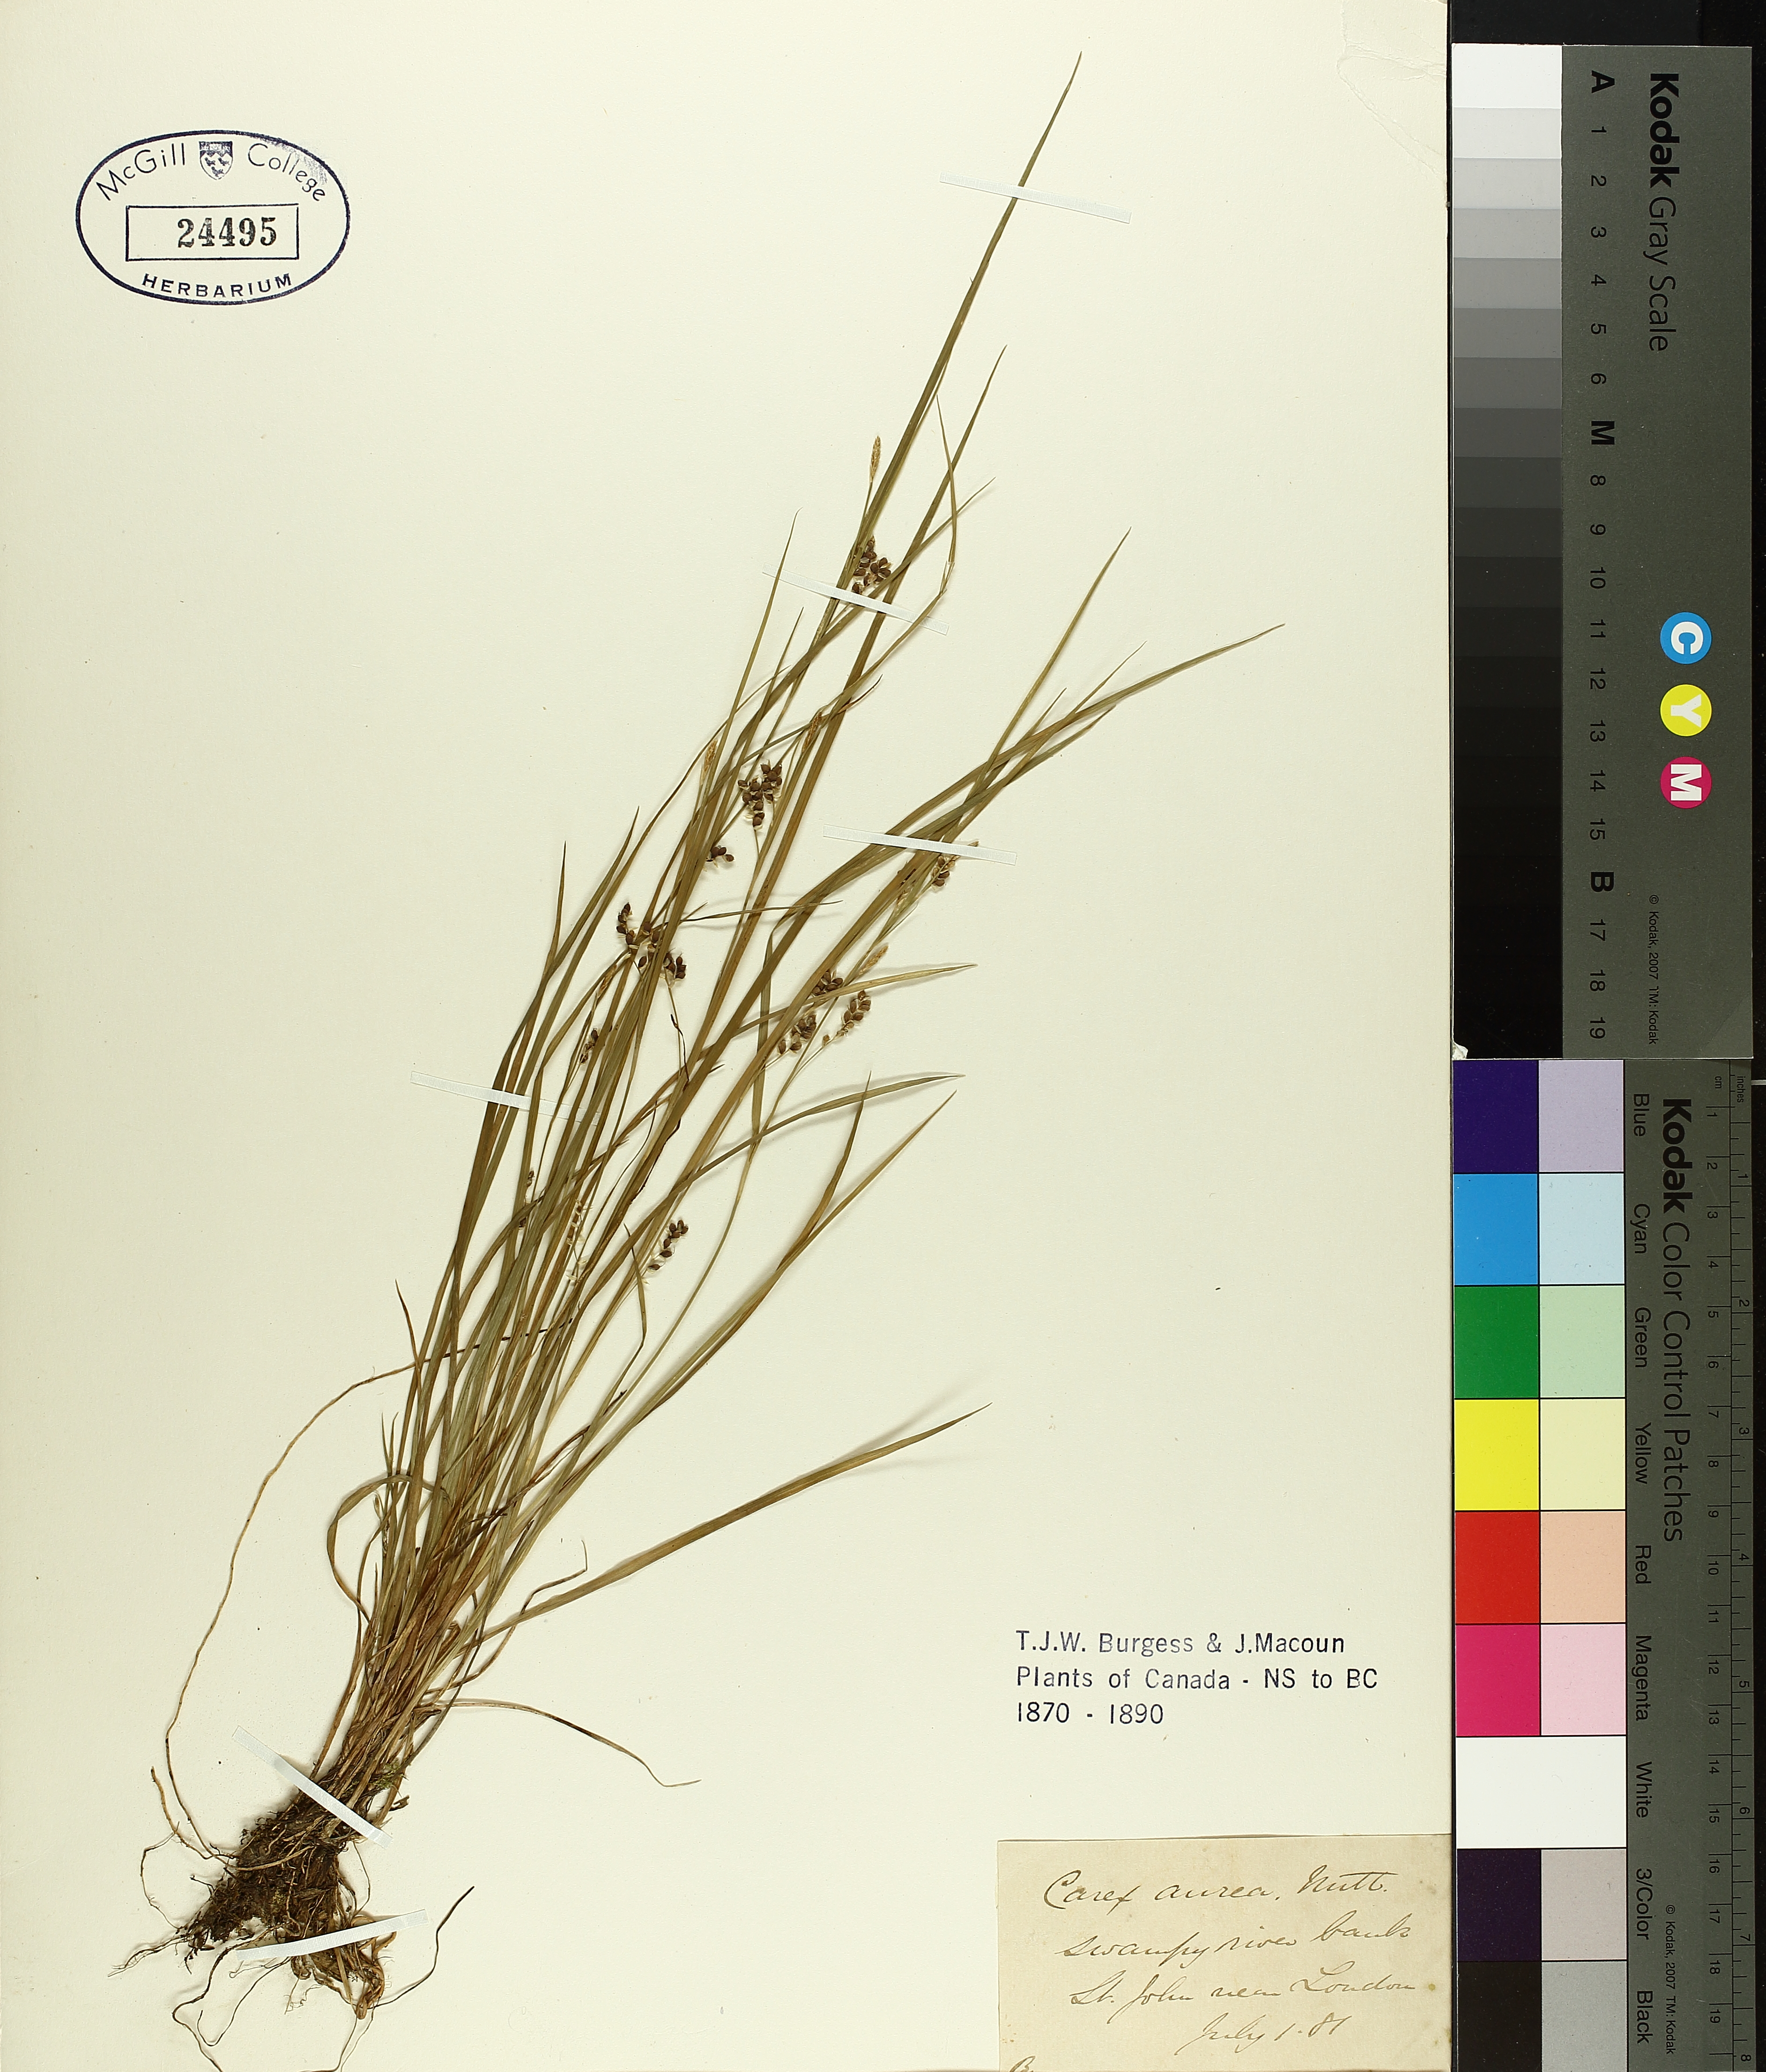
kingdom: Plantae
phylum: Tracheophyta
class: Liliopsida
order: Poales
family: Cyperaceae
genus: Carex
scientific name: Carex aurea
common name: Golden sedge
